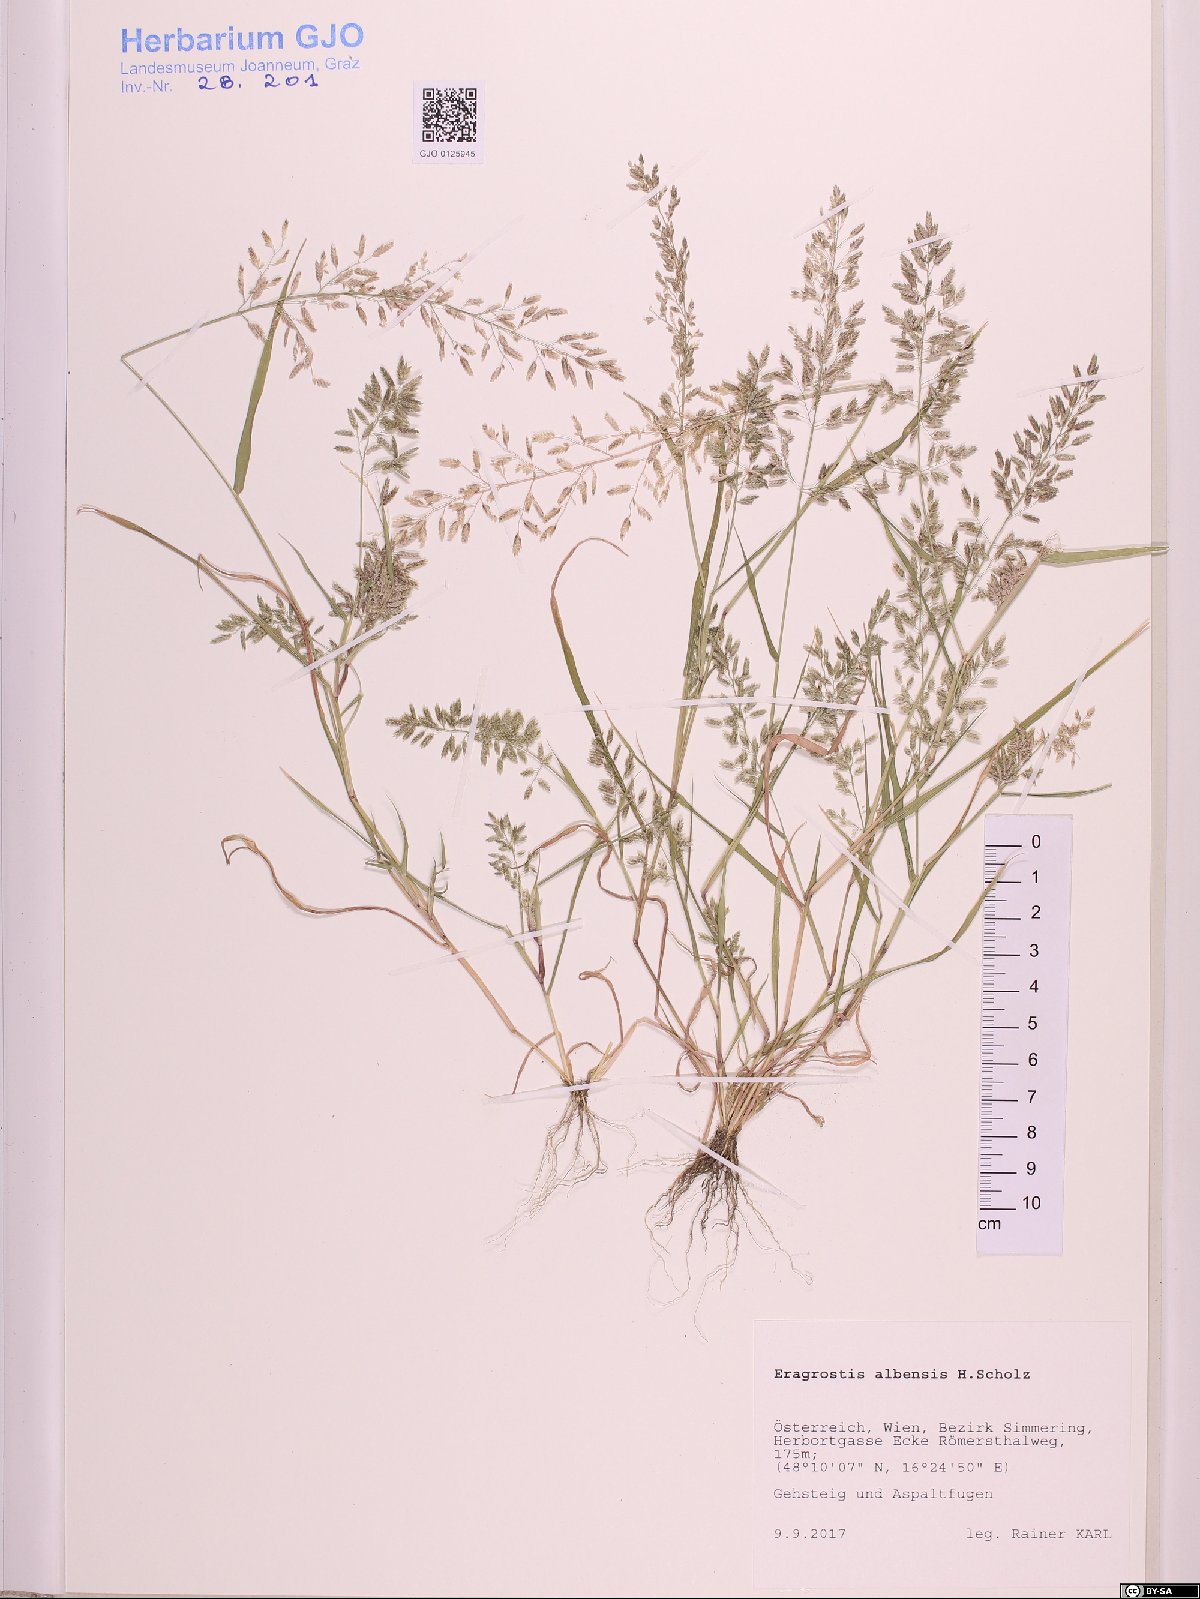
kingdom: Plantae
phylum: Tracheophyta
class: Liliopsida
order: Poales
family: Poaceae
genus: Eragrostis
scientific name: Eragrostis pilosa
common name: Indian lovegrass
